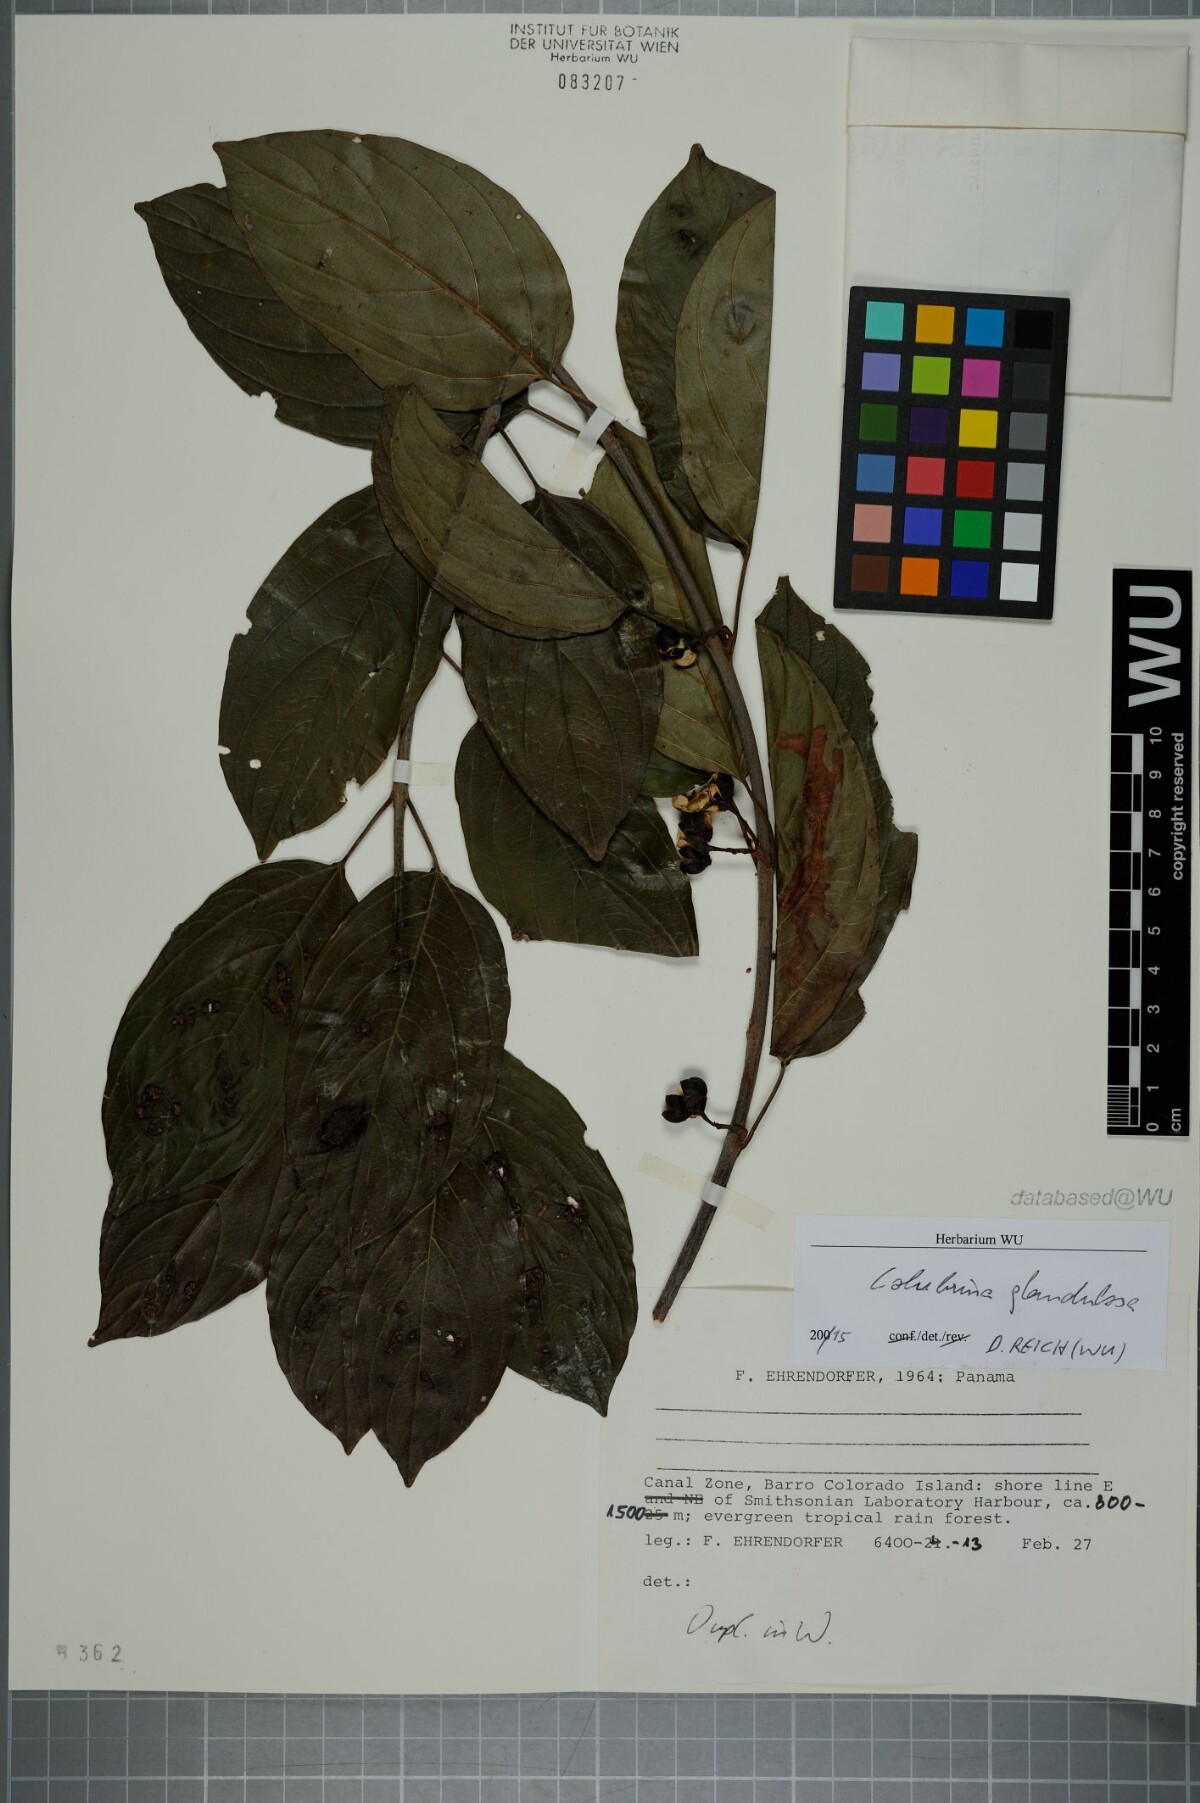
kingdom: Plantae
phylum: Tracheophyta
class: Magnoliopsida
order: Rosales
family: Rhamnaceae
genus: Colubrina
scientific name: Colubrina glandulosa
